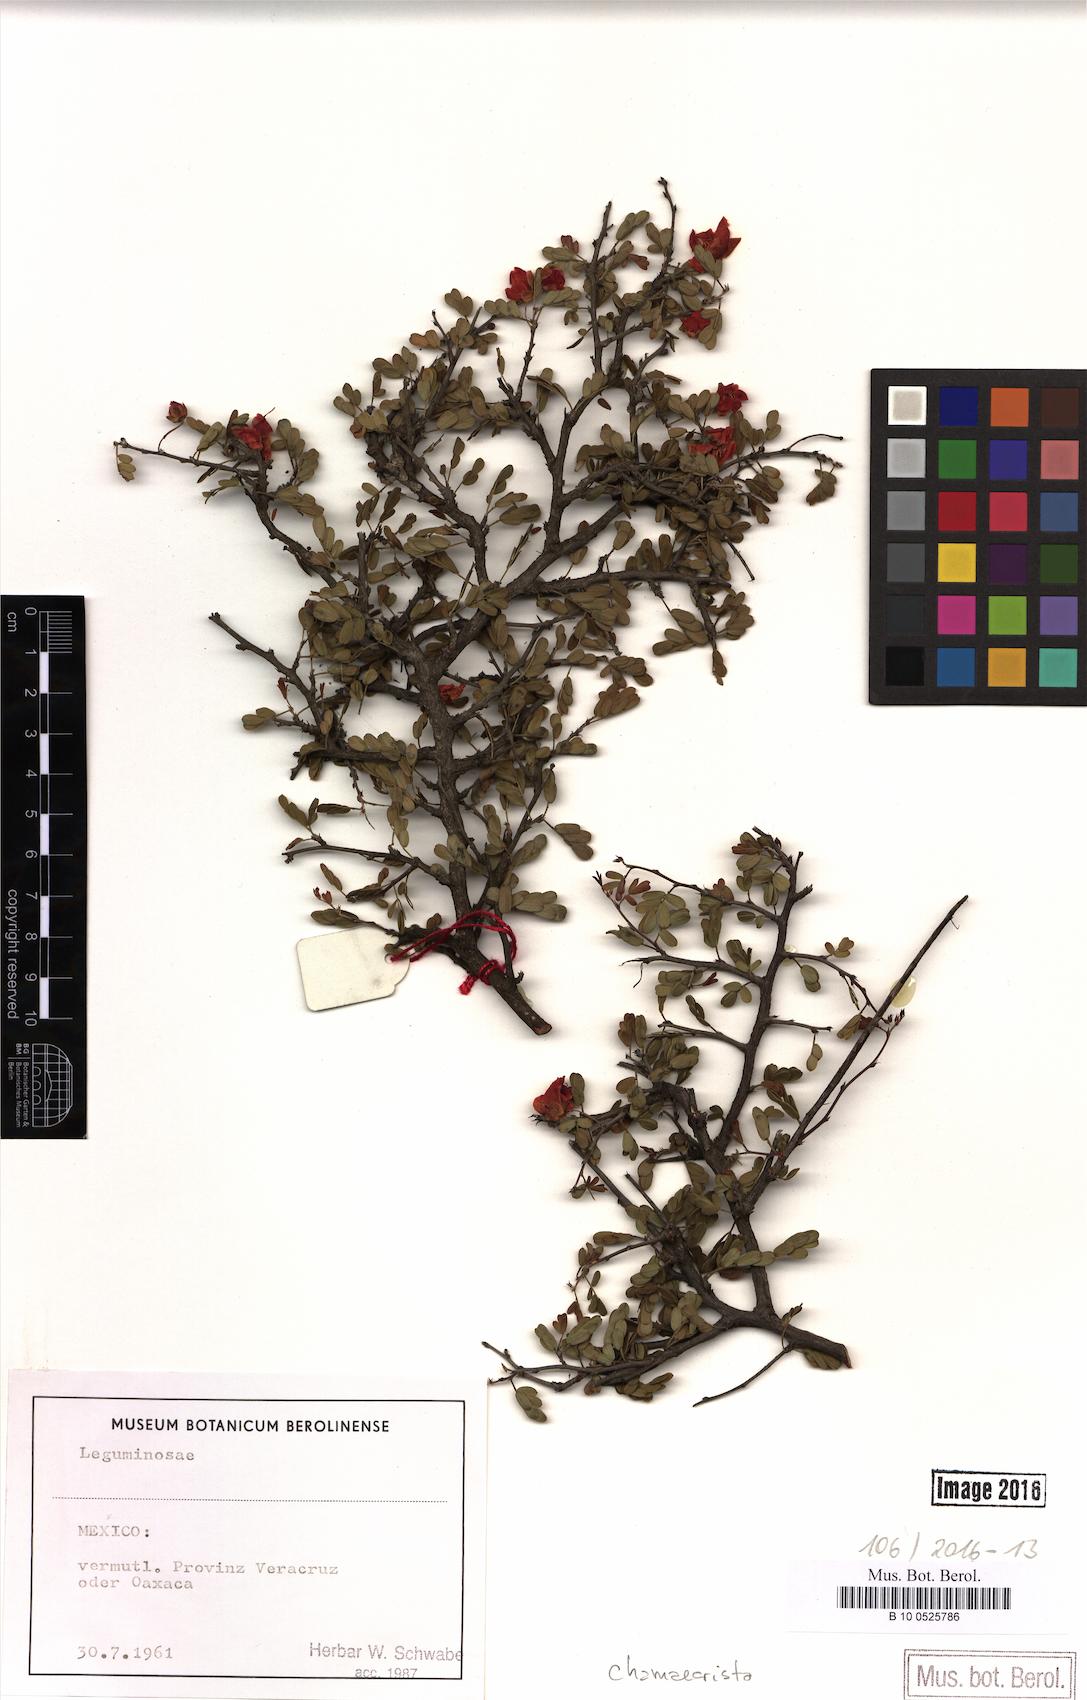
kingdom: Plantae
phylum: Tracheophyta
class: Magnoliopsida
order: Fabales
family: Fabaceae
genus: Chamaecrista
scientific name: Chamaecrista
